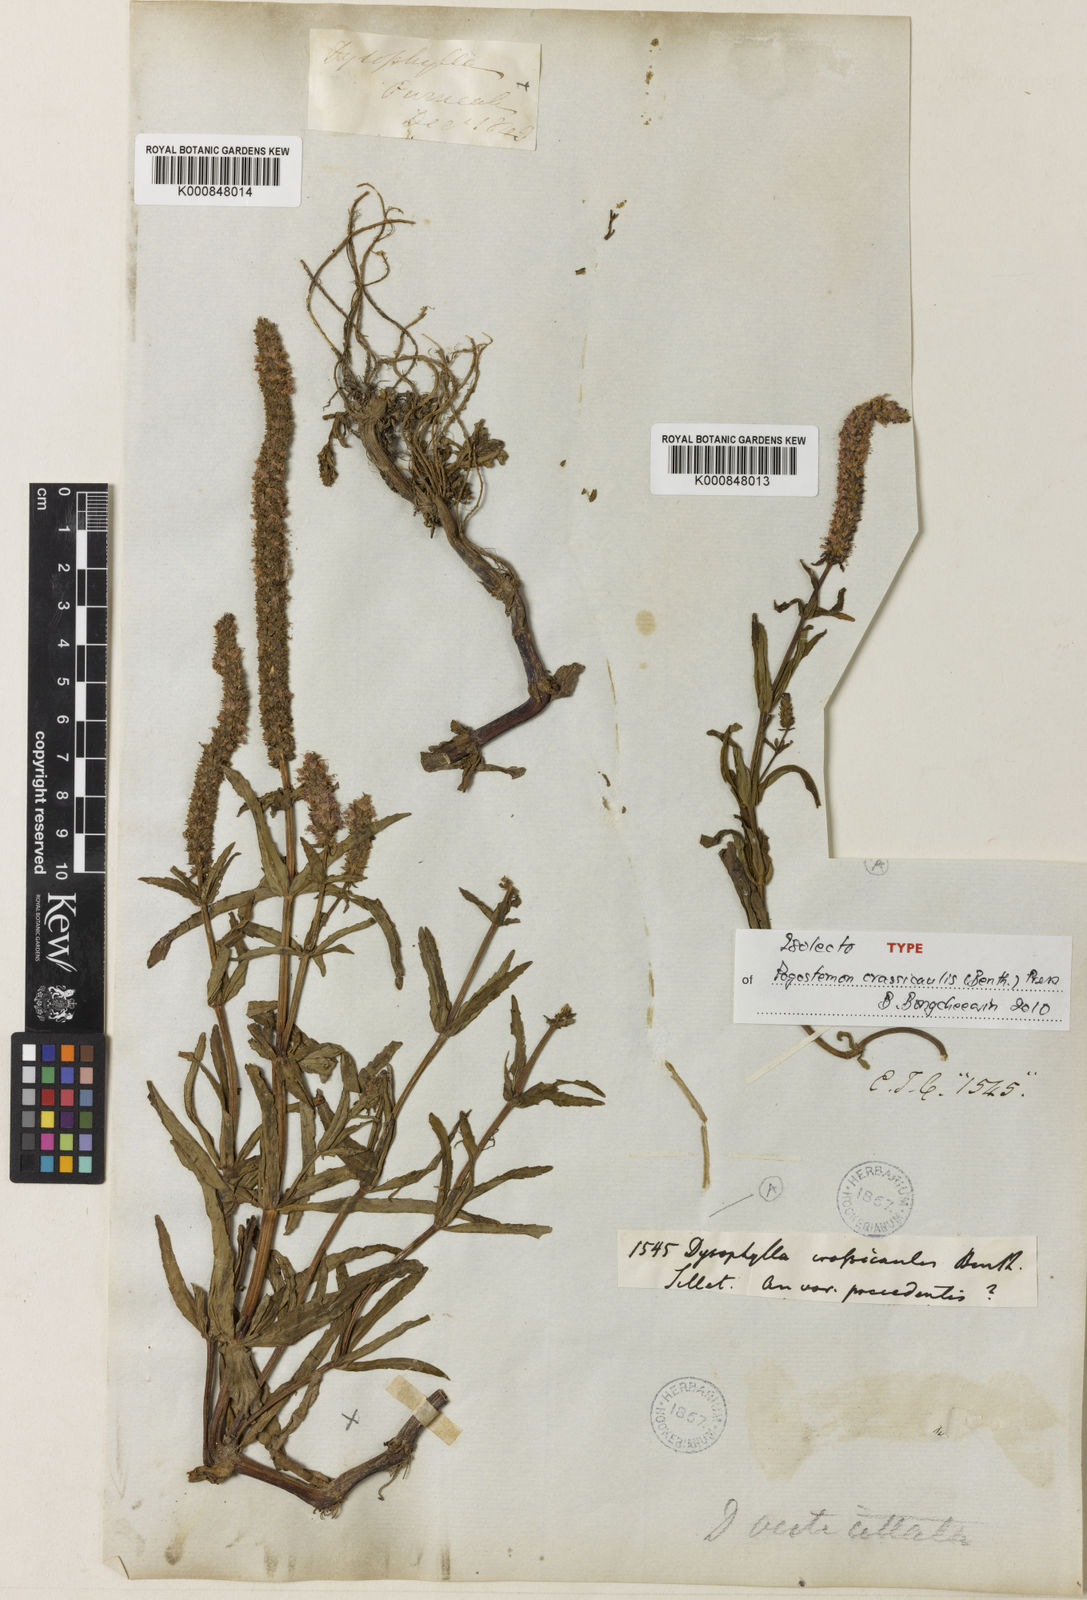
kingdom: Plantae
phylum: Tracheophyta
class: Magnoliopsida
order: Lamiales
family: Lamiaceae
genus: Pogostemon
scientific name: Pogostemon crassicaulis
